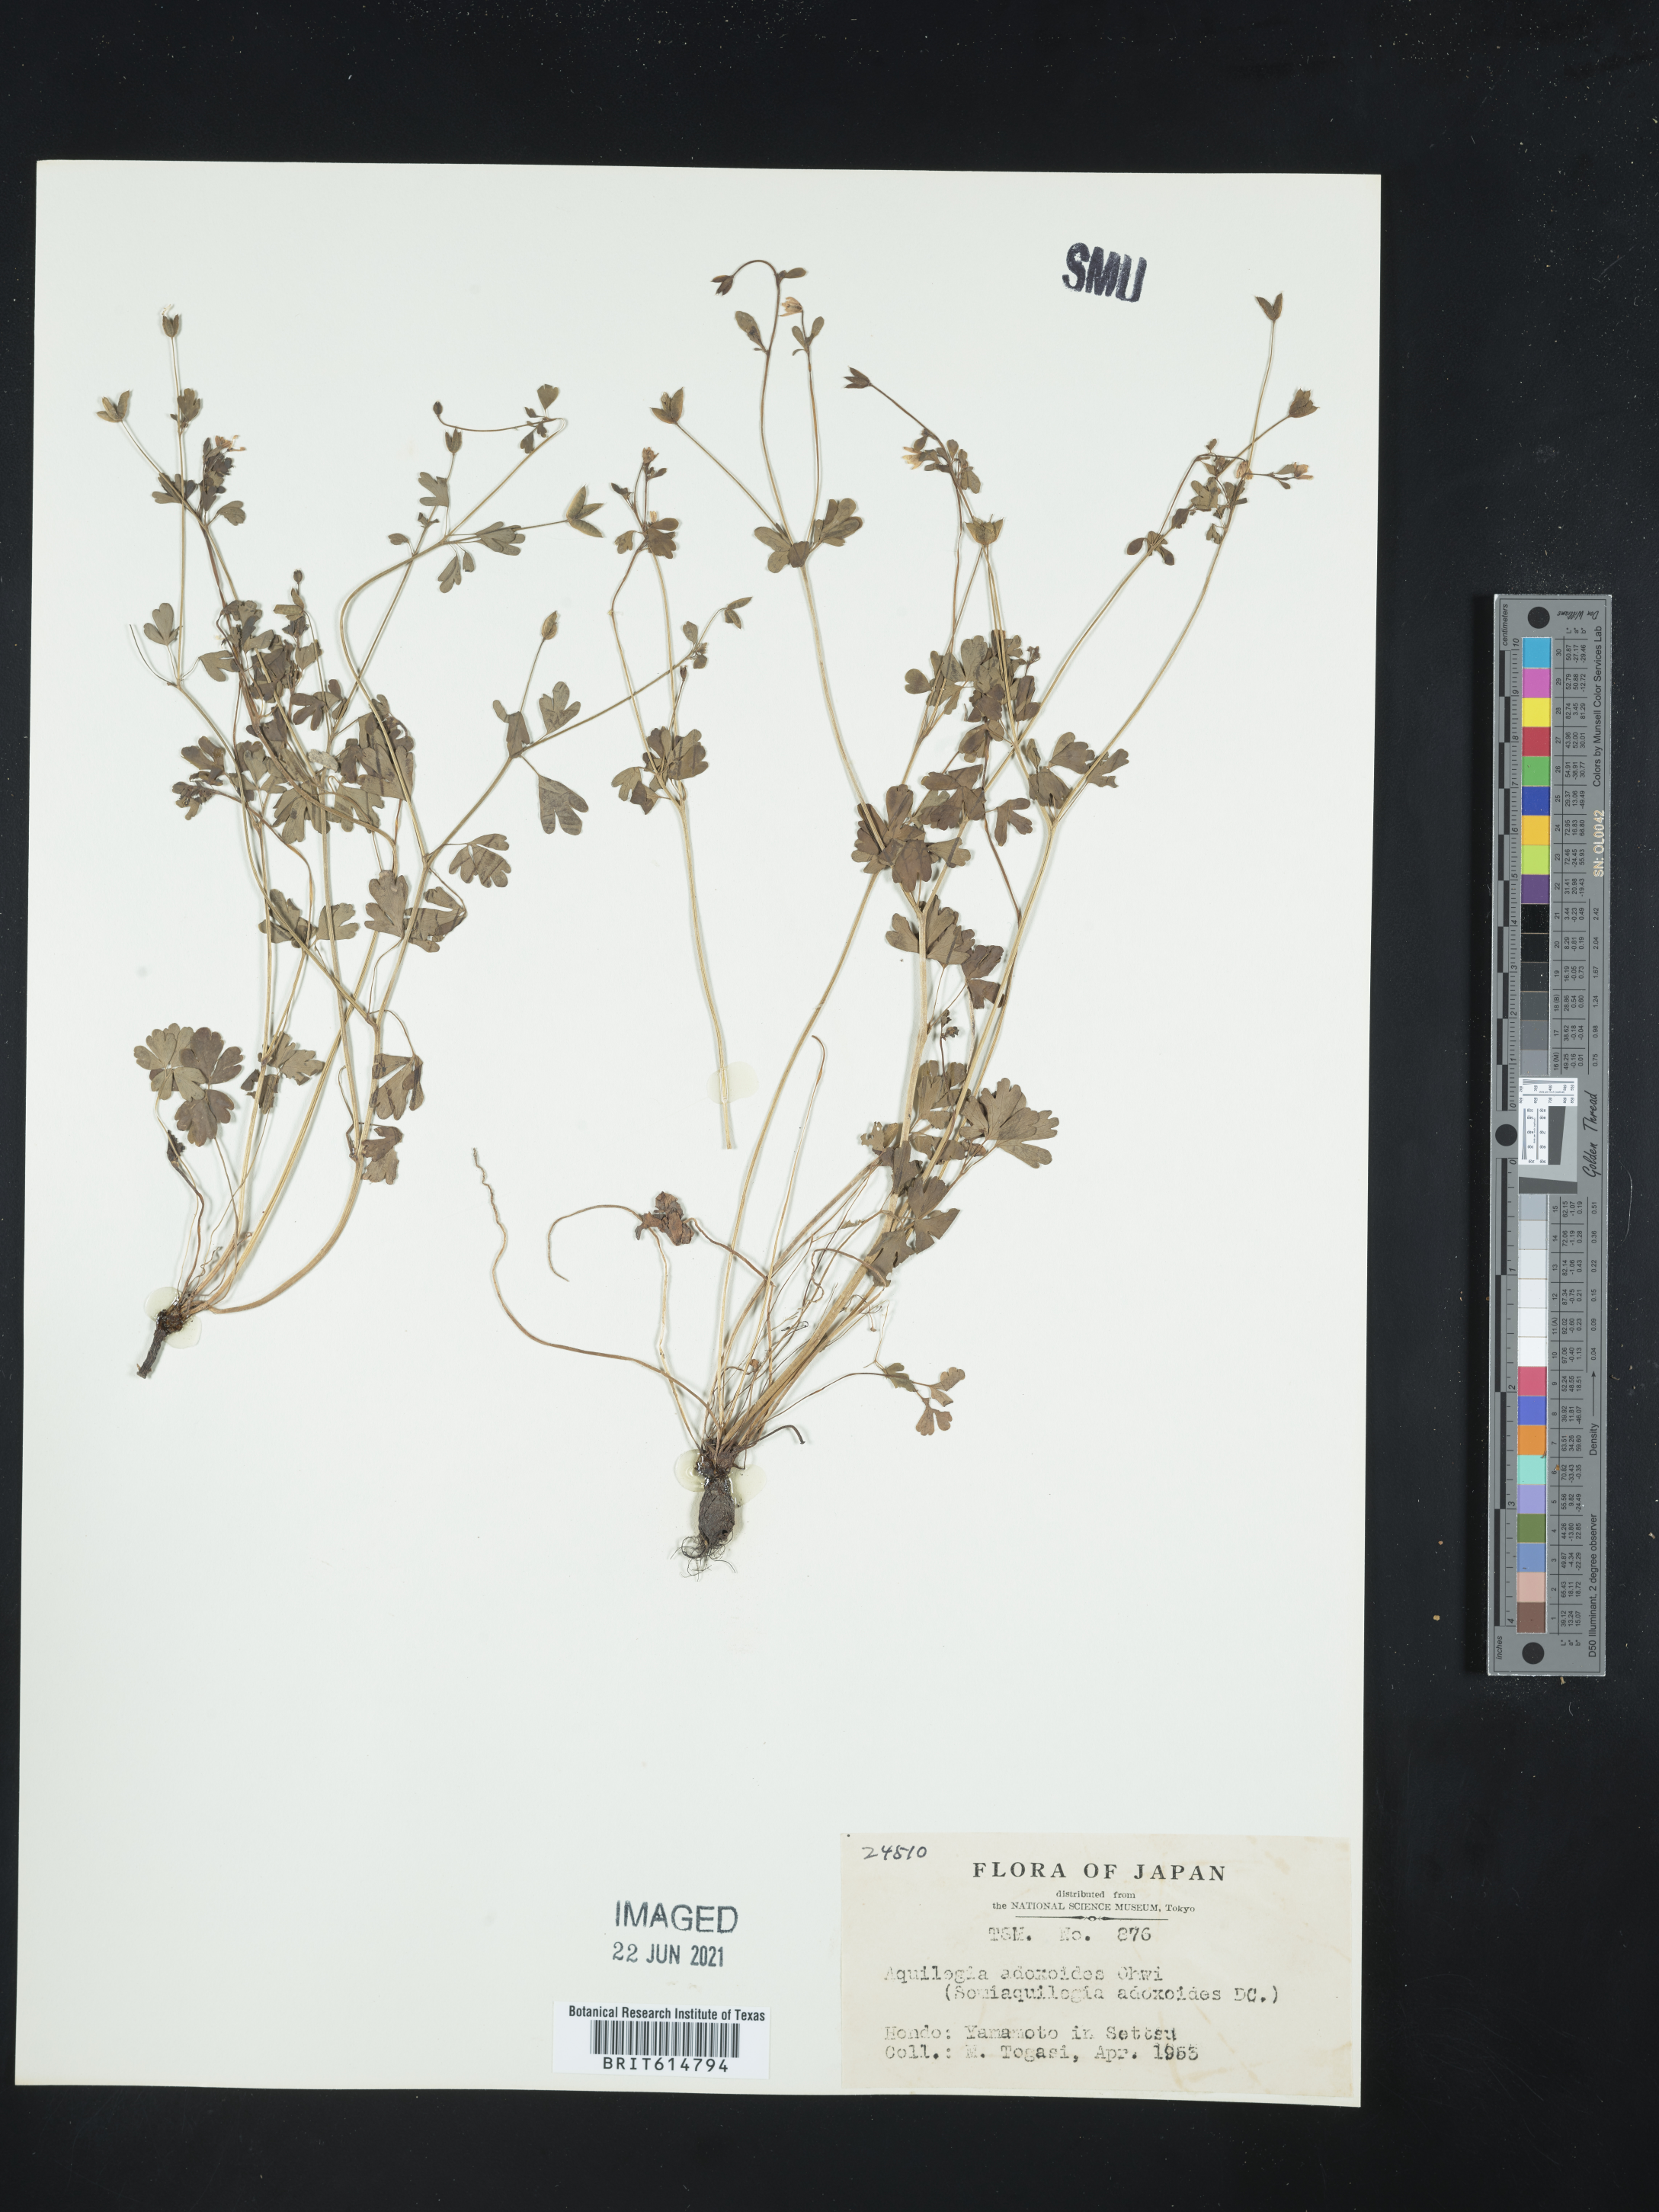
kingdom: Plantae
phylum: Tracheophyta
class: Magnoliopsida
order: Ranunculales
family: Ranunculaceae
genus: Semiaquilegia
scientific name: Semiaquilegia adoxoides
